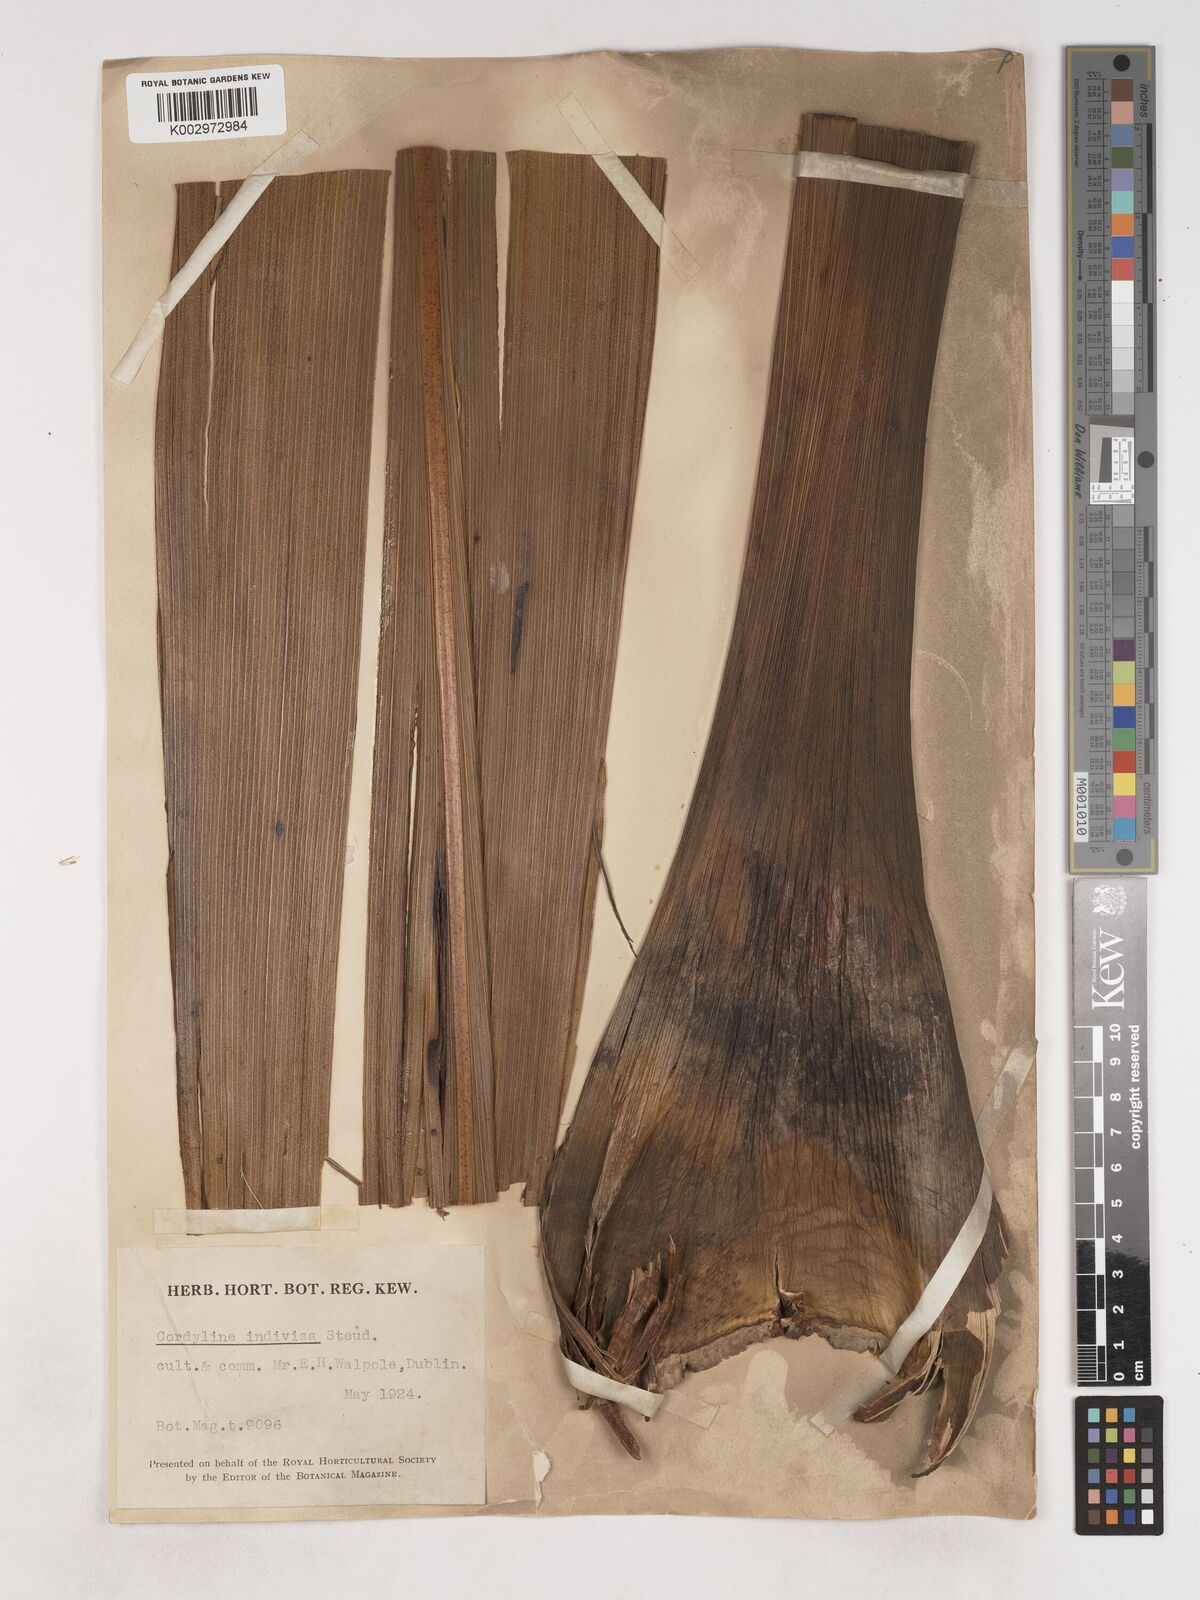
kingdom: Plantae
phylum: Tracheophyta
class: Liliopsida
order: Asparagales
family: Asparagaceae
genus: Cordyline
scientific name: Cordyline
